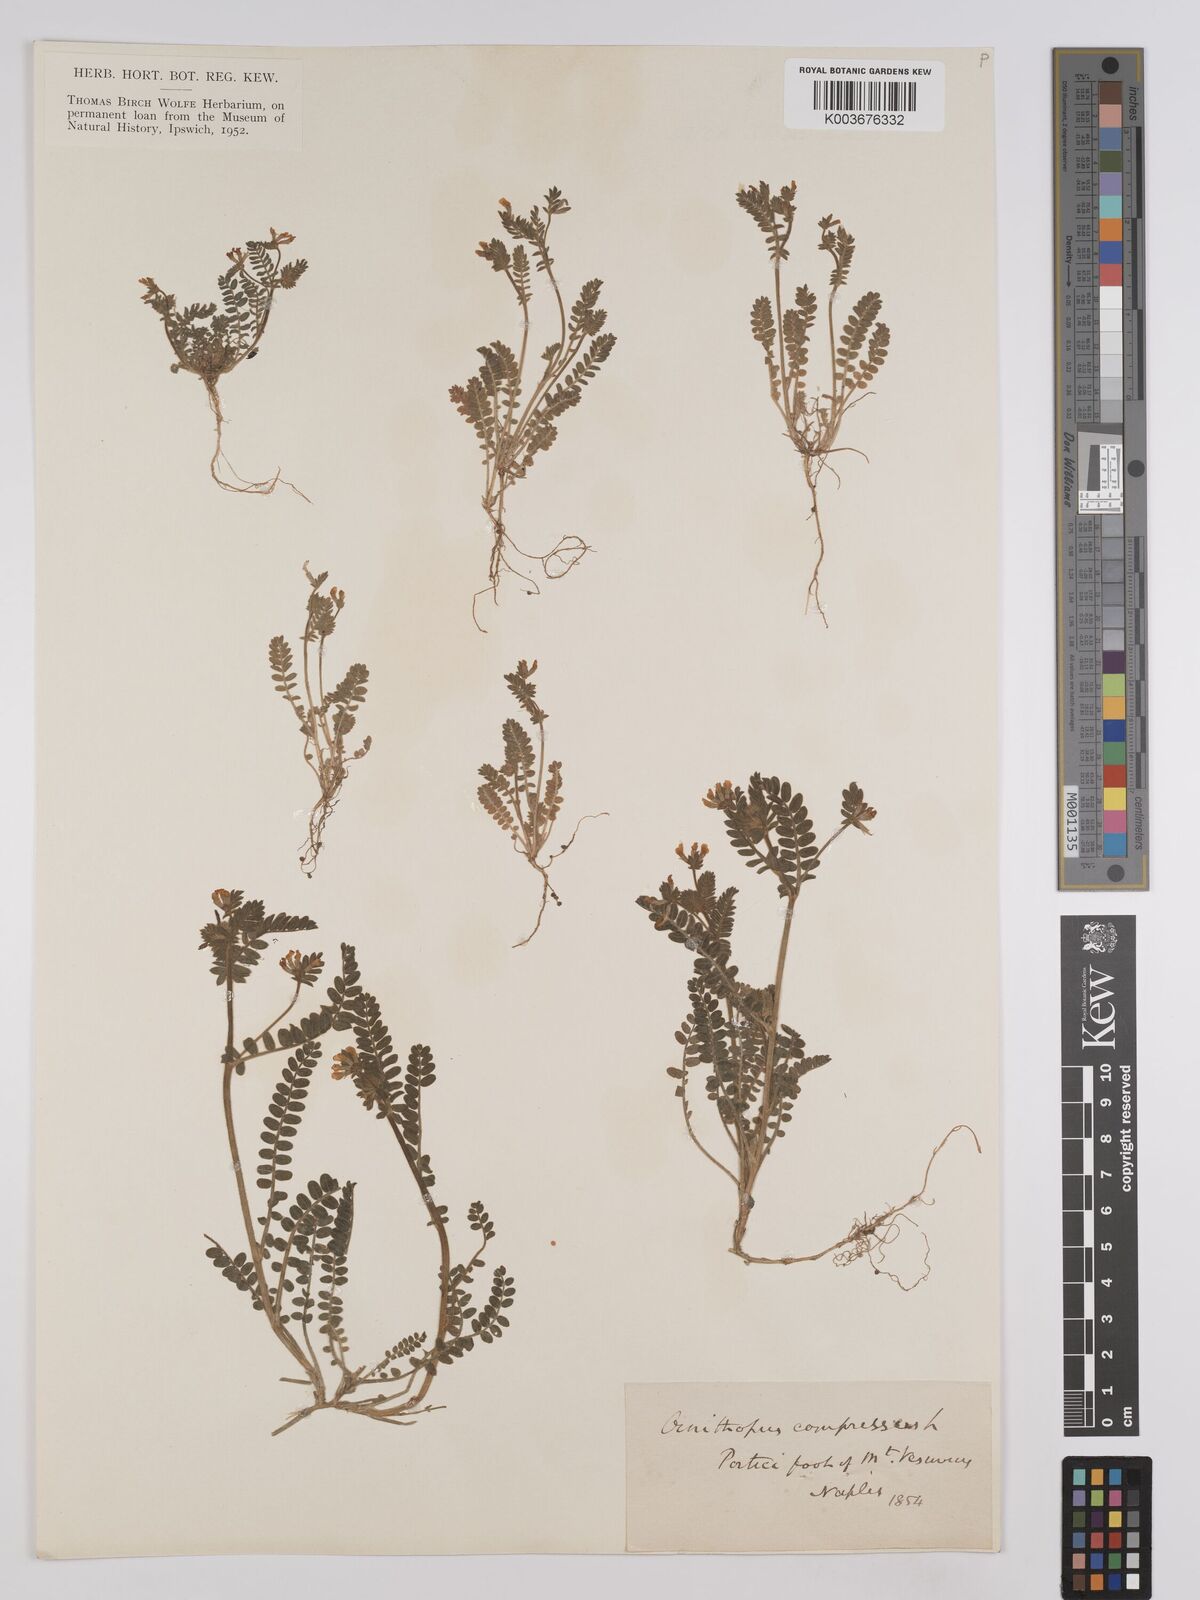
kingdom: Plantae
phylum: Tracheophyta
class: Magnoliopsida
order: Fabales
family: Fabaceae
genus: Ornithopus
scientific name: Ornithopus compressus
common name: Yellow serradella
